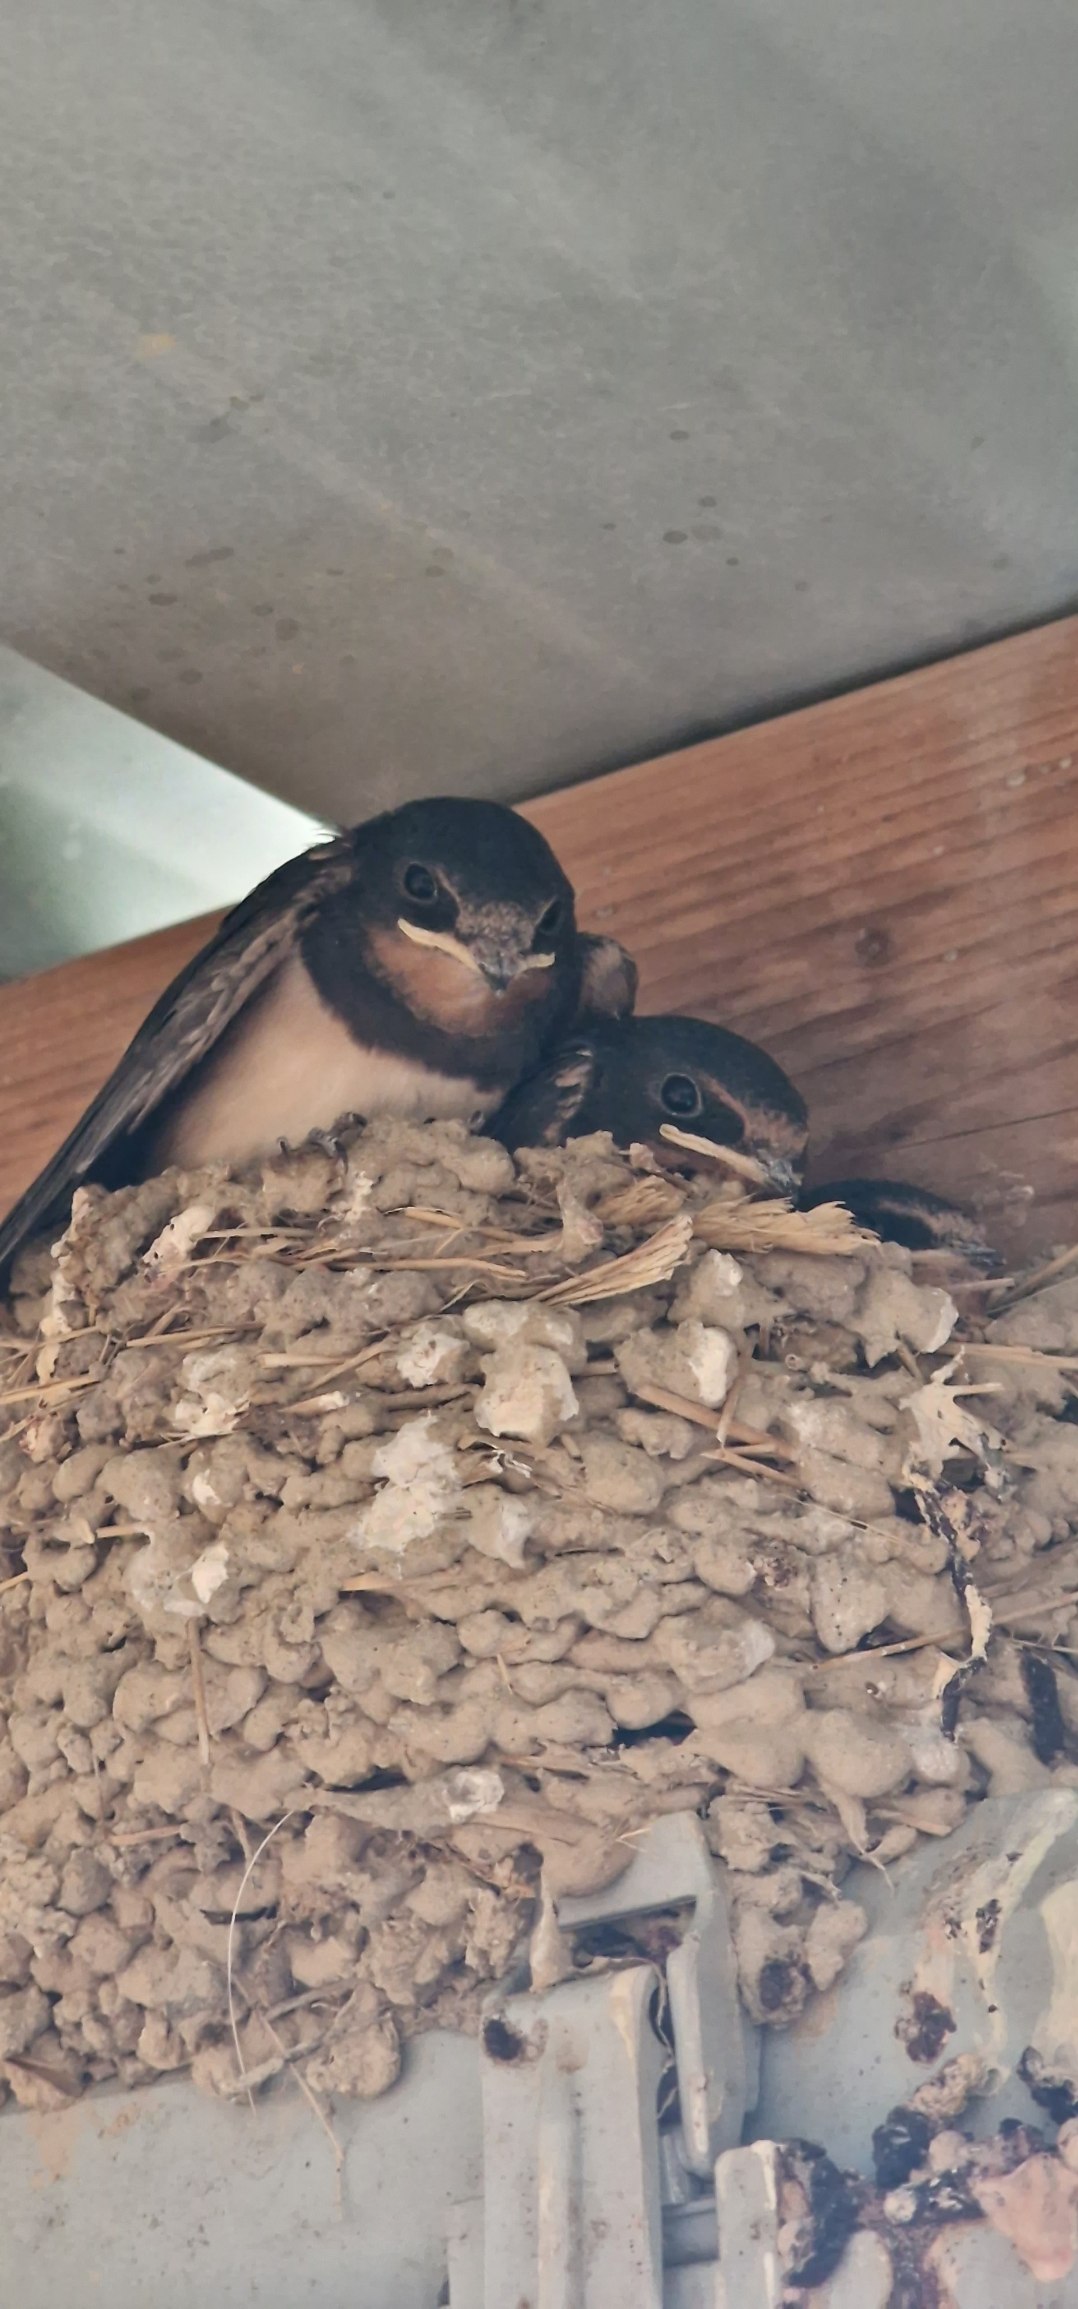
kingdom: Animalia
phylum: Chordata
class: Aves
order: Passeriformes
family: Hirundinidae
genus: Hirundo
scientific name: Hirundo rustica
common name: Landsvale
